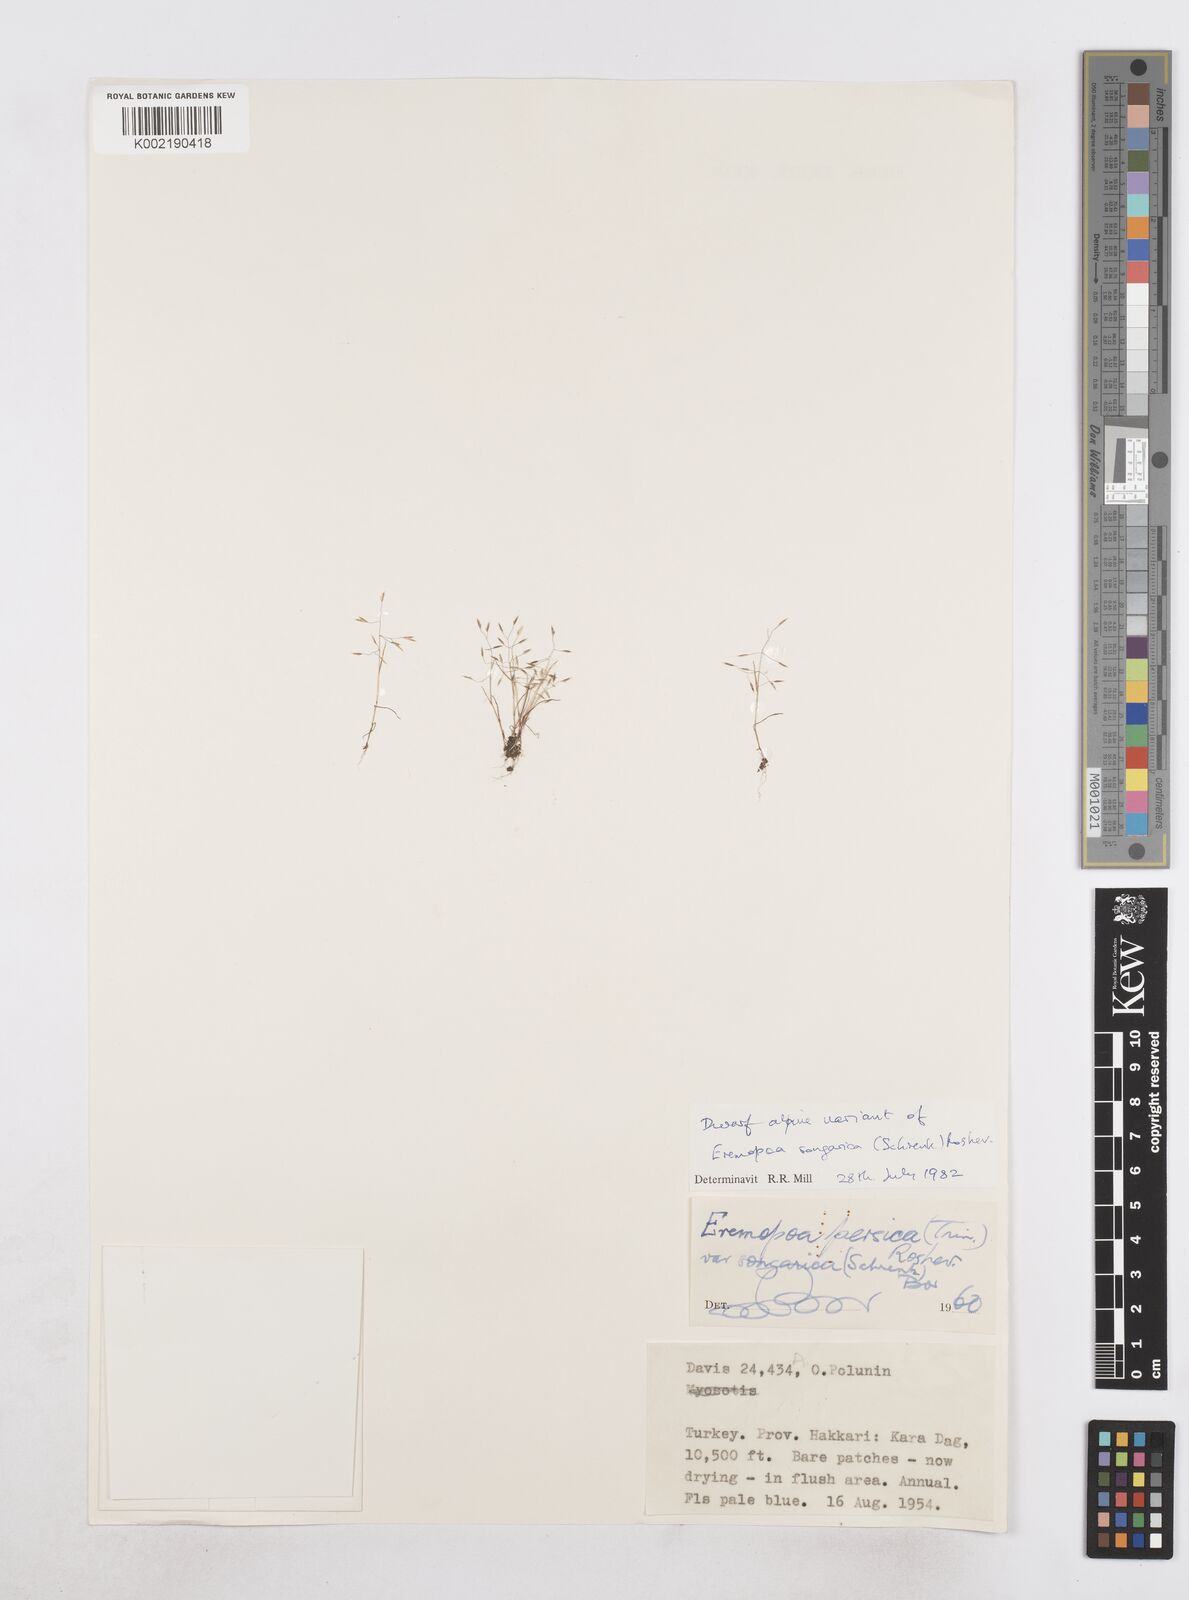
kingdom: Plantae
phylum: Tracheophyta
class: Liliopsida
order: Poales
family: Poaceae
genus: Poa
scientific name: Poa diaphora
